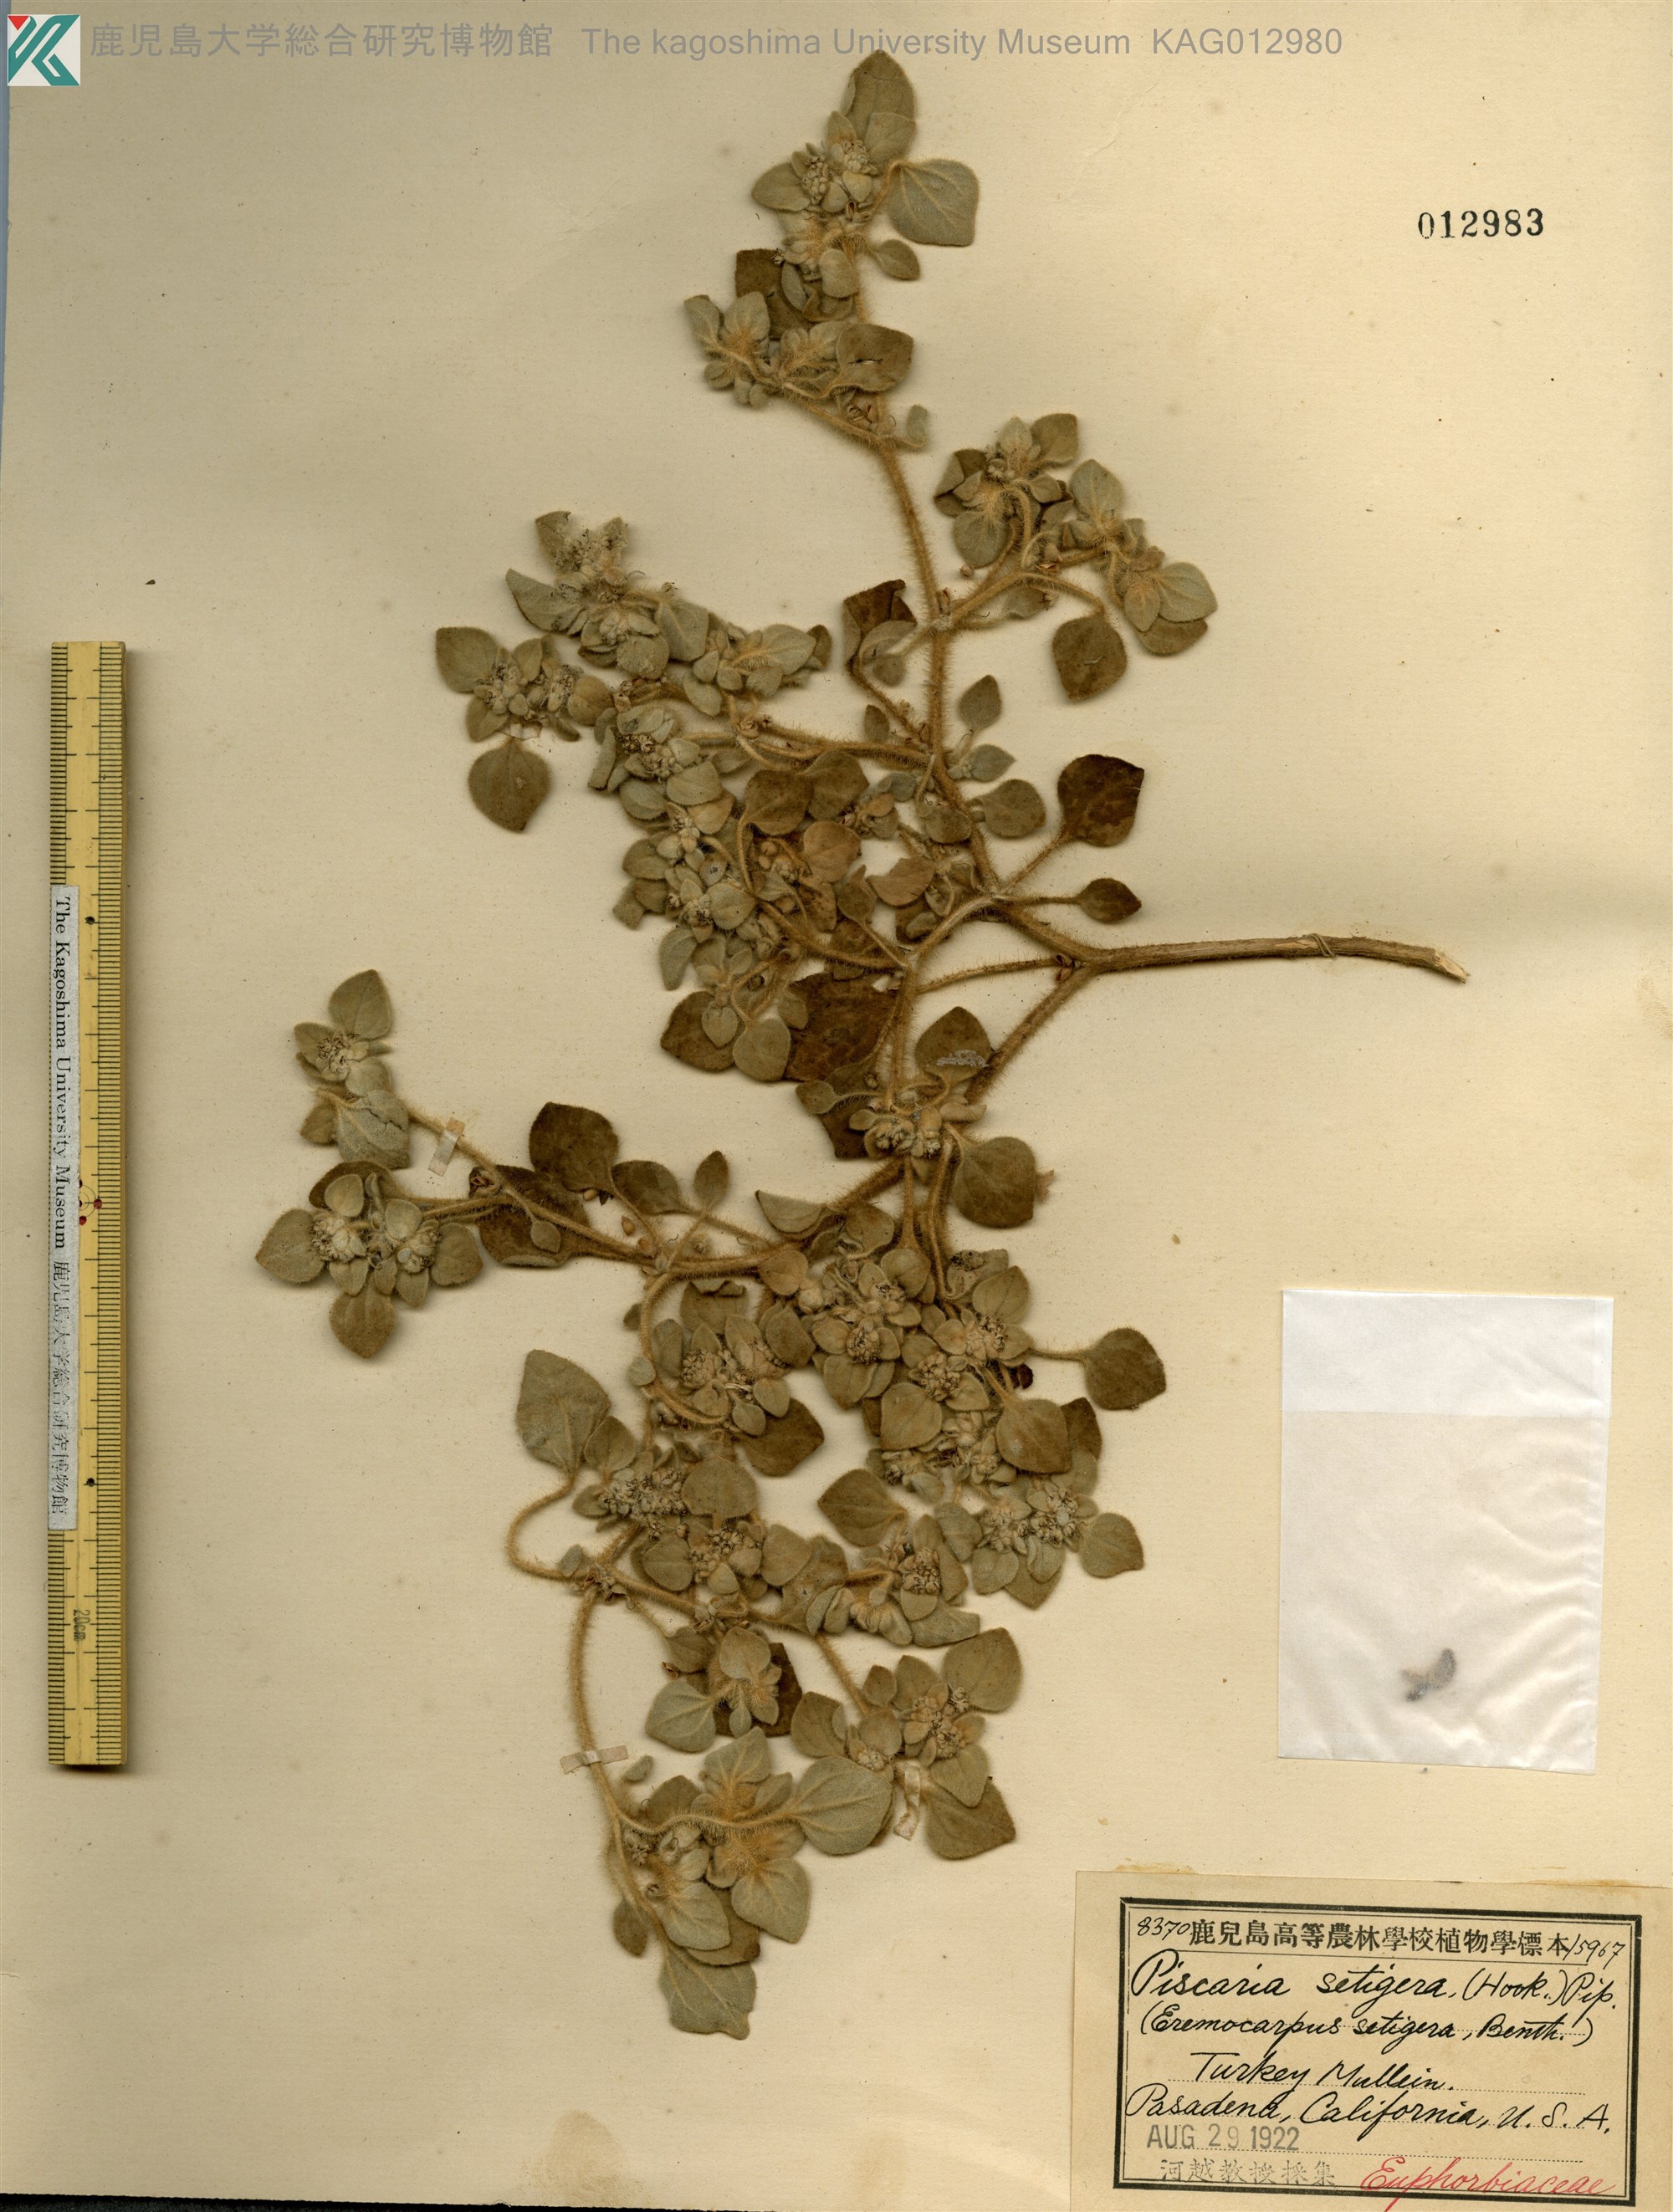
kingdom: Plantae
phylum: Tracheophyta
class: Magnoliopsida
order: Malpighiales
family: Euphorbiaceae
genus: Croton
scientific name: Croton setiger
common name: Dove weed
